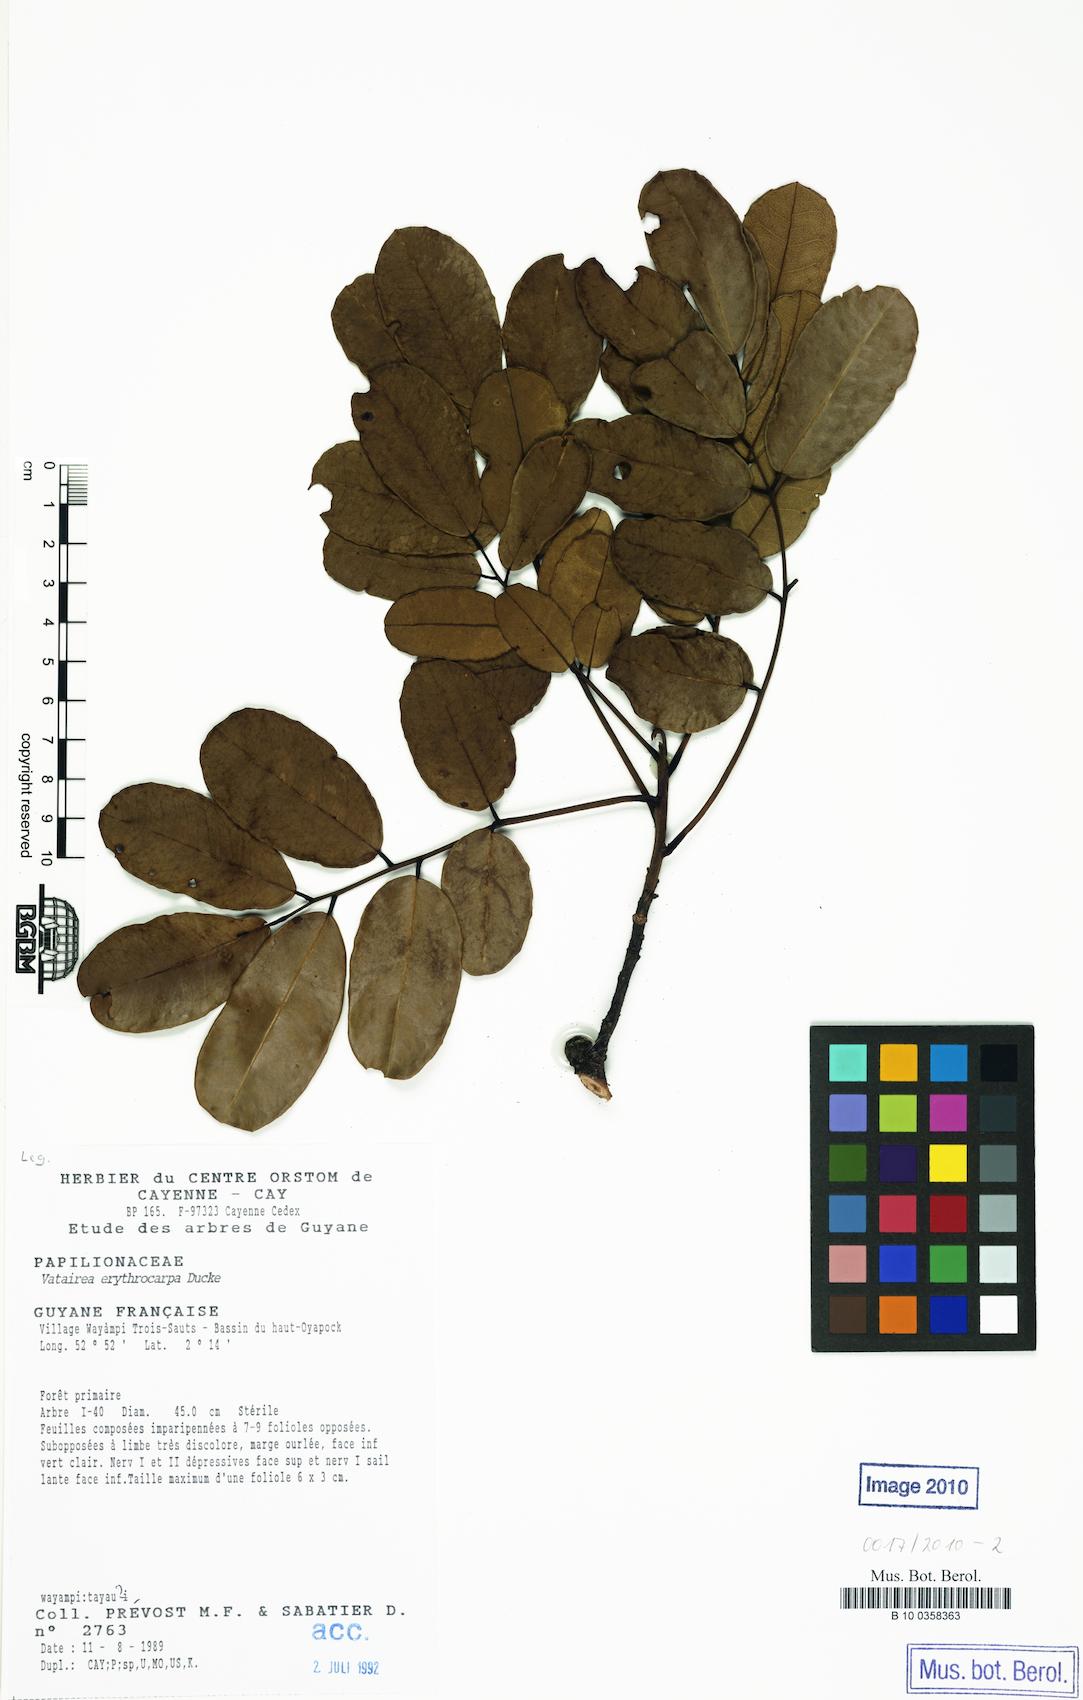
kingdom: Plantae
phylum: Tracheophyta
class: Magnoliopsida
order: Fabales
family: Fabaceae
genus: Vatairea
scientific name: Vatairea erythrocarpa
